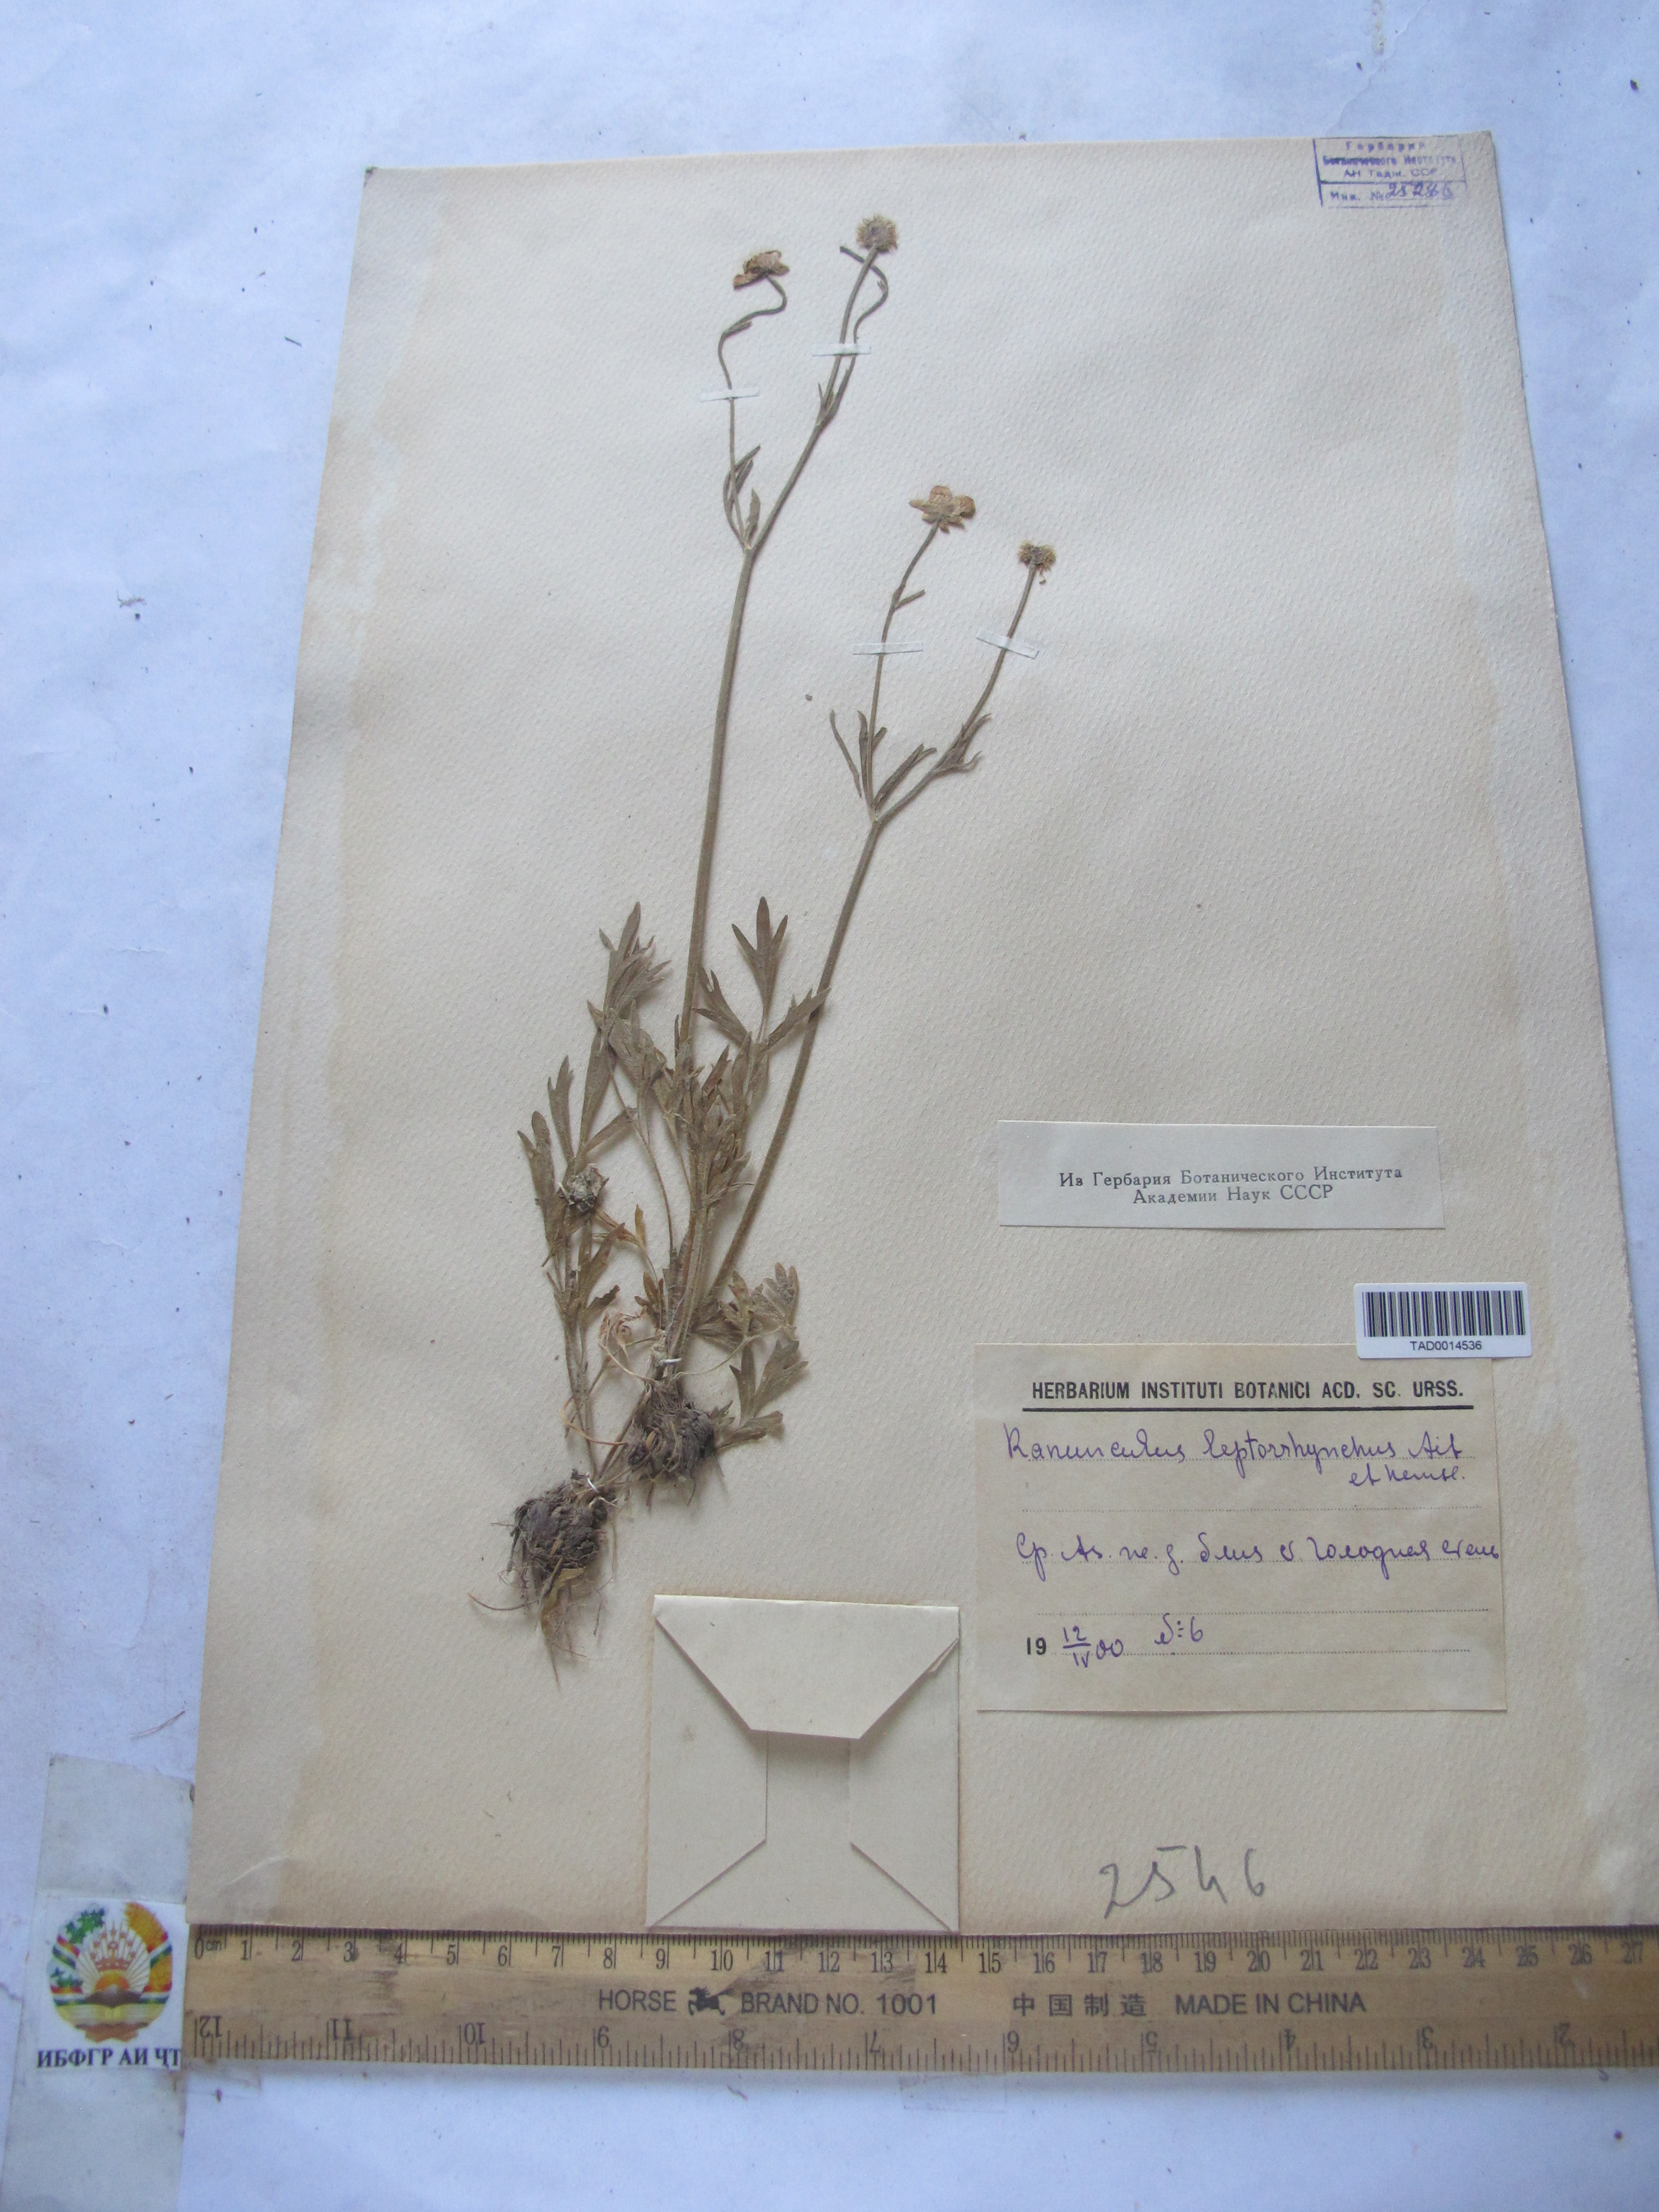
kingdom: Plantae
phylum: Tracheophyta
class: Magnoliopsida
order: Ranunculales
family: Ranunculaceae
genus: Ranunculus
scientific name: Ranunculus leptorrhynchus
